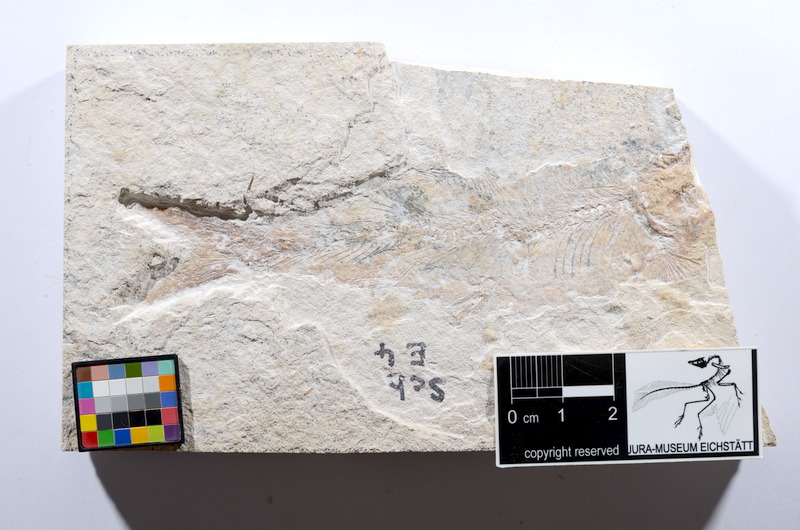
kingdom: Animalia
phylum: Chordata
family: Ascalaboidae
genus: Tharsis
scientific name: Tharsis dubius
